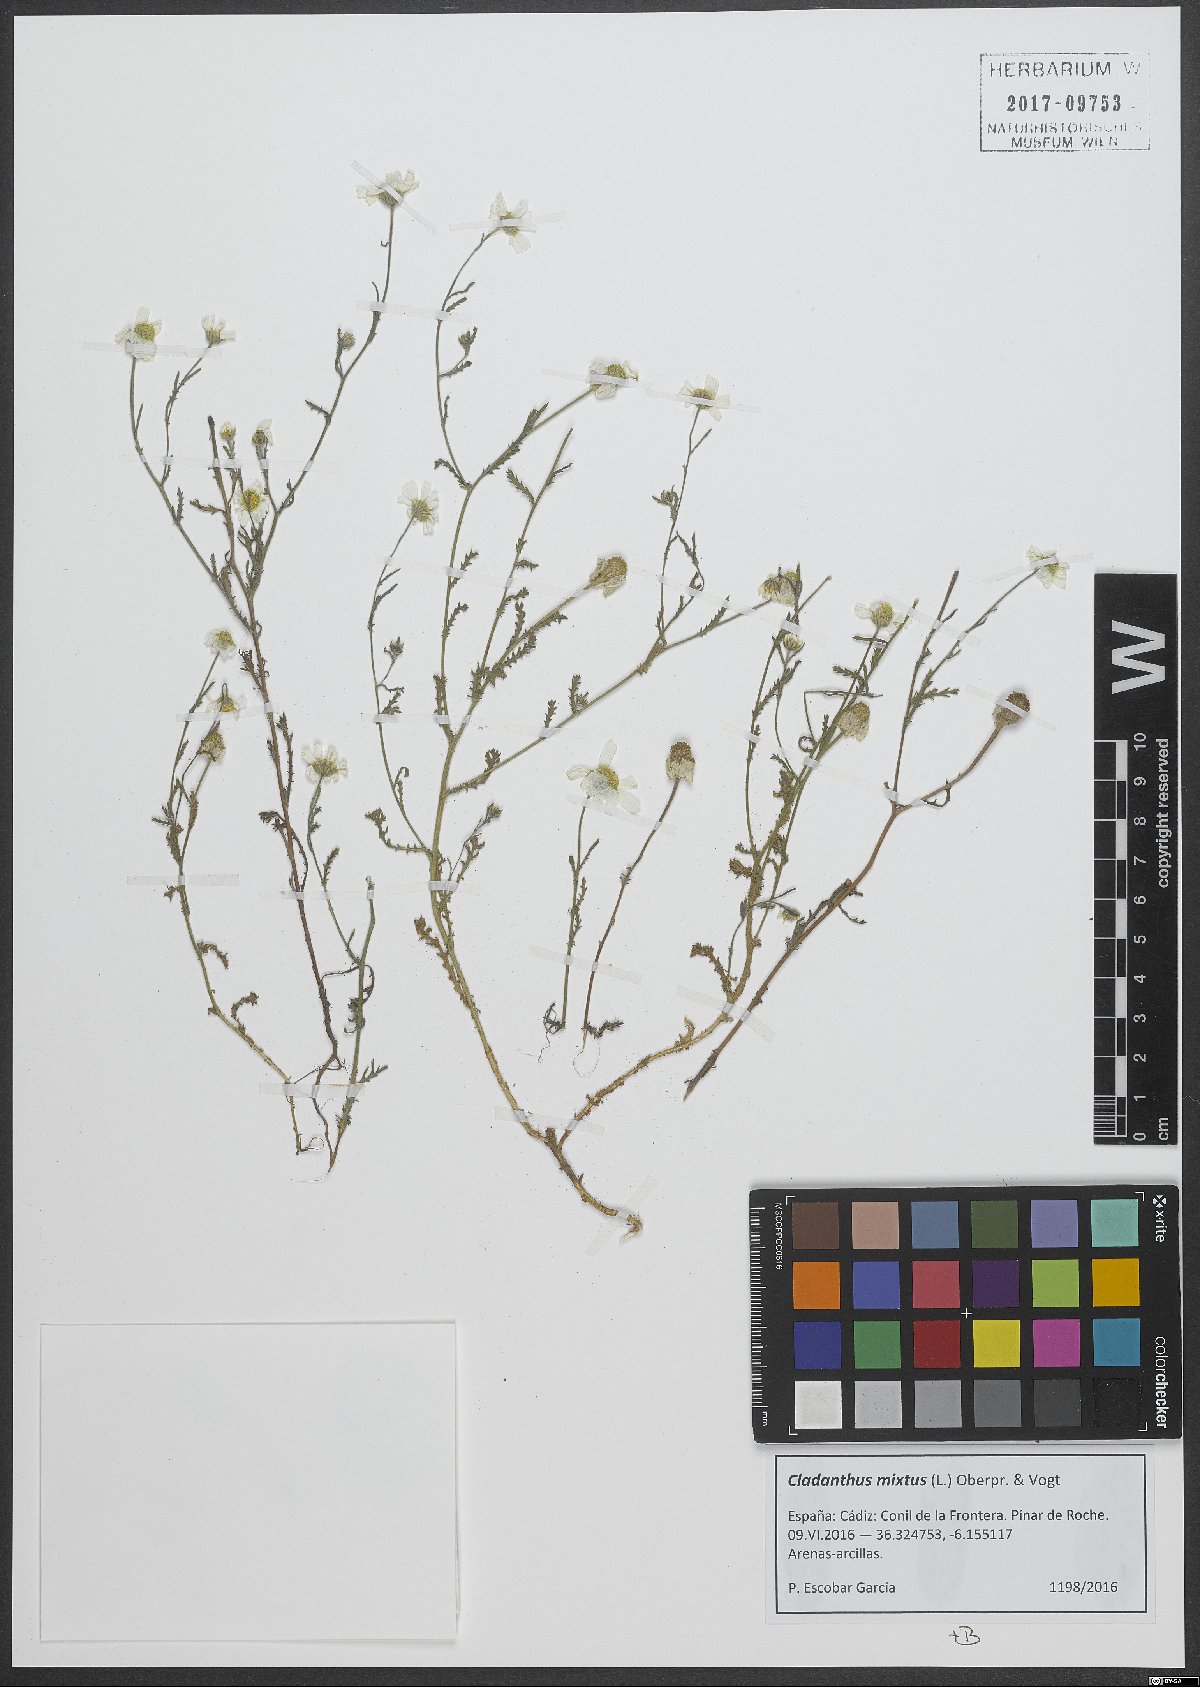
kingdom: Plantae
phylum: Tracheophyta
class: Magnoliopsida
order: Asterales
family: Asteraceae
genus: Cladanthus
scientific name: Cladanthus mixtus
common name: Weedy dogfennel
